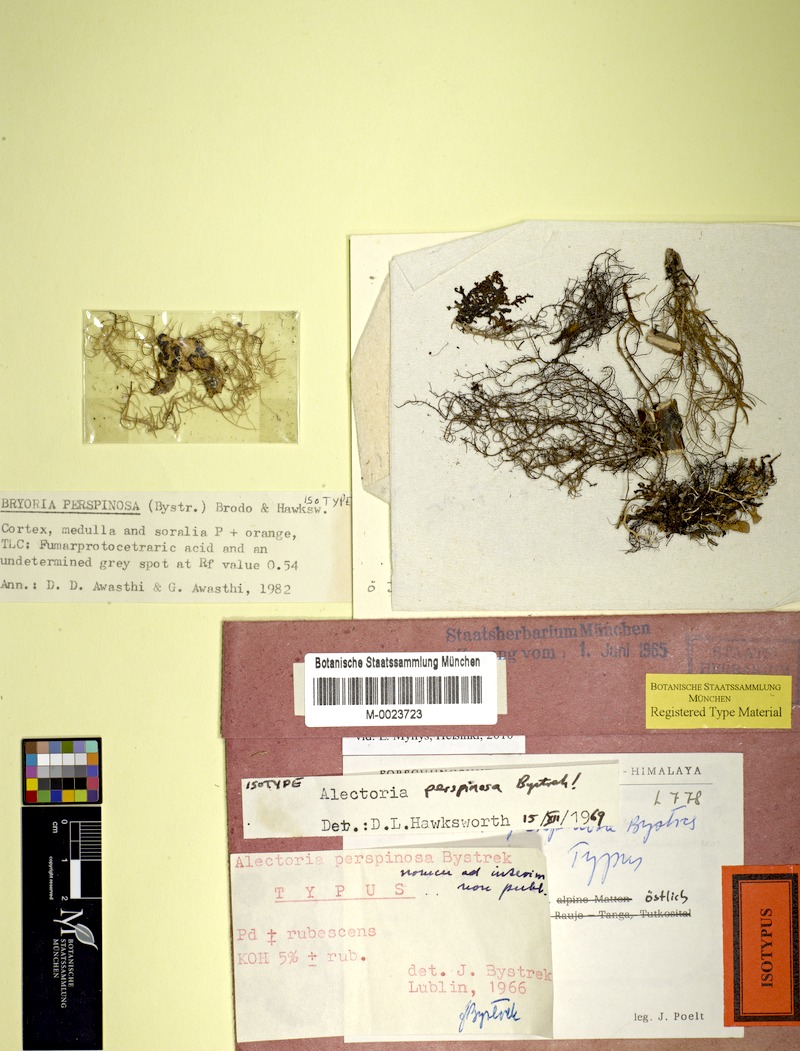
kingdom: Fungi
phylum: Ascomycota
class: Lecanoromycetes
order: Lecanorales
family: Parmeliaceae
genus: Bryoria
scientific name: Bryoria
